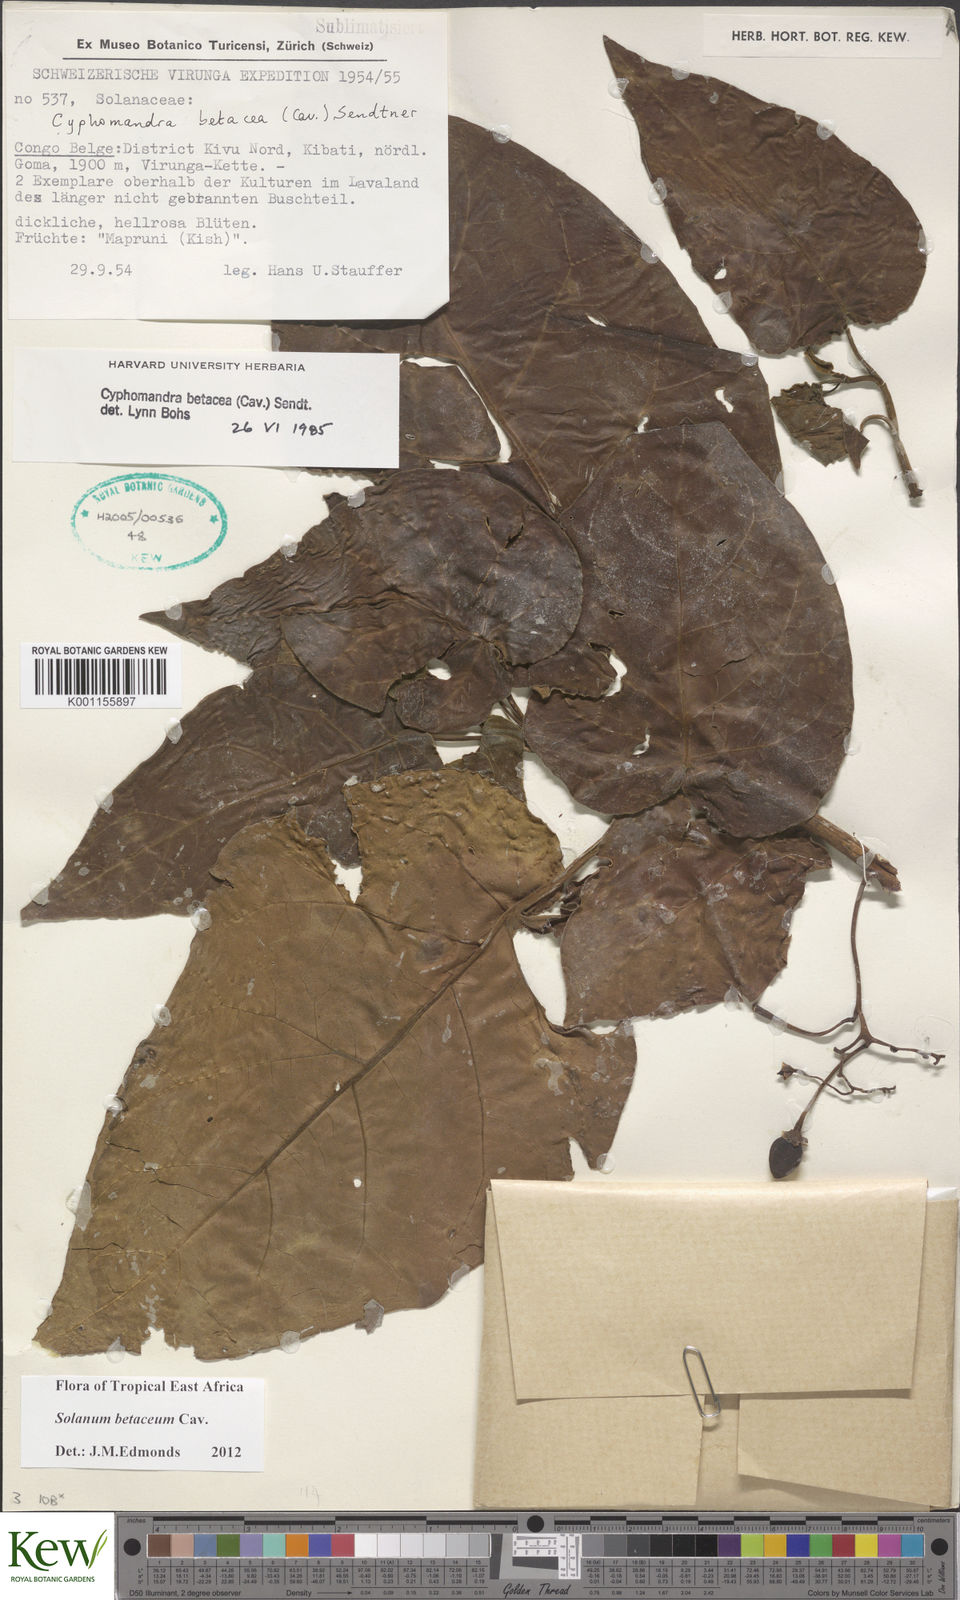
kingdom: Plantae
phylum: Tracheophyta
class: Magnoliopsida
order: Solanales
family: Solanaceae
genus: Solanum
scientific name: Solanum betaceum
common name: Tamarillo
